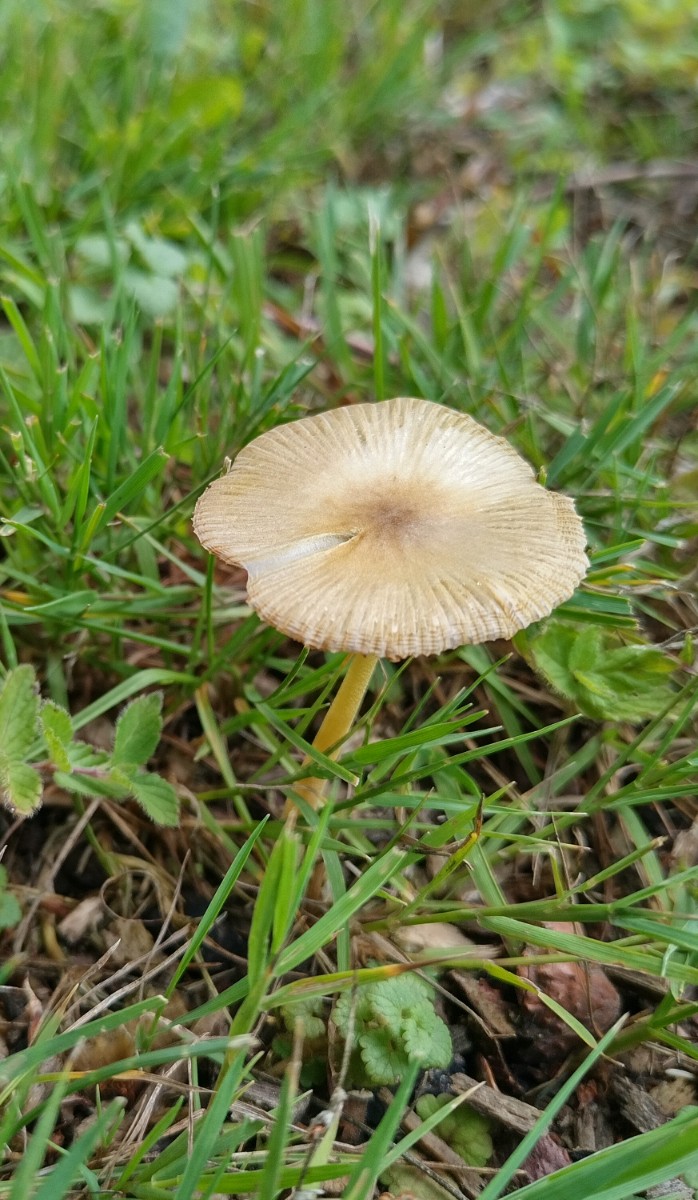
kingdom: Fungi
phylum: Basidiomycota
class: Agaricomycetes
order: Agaricales
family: Bolbitiaceae
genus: Bolbitius
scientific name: Bolbitius titubans
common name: almindelig gulhat
